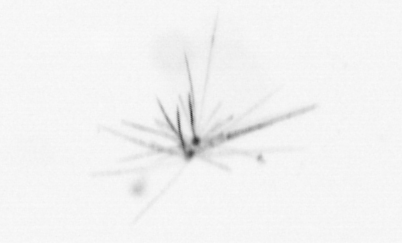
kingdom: Chromista
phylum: Ochrophyta
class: Bacillariophyceae
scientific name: Bacillariophyceae
